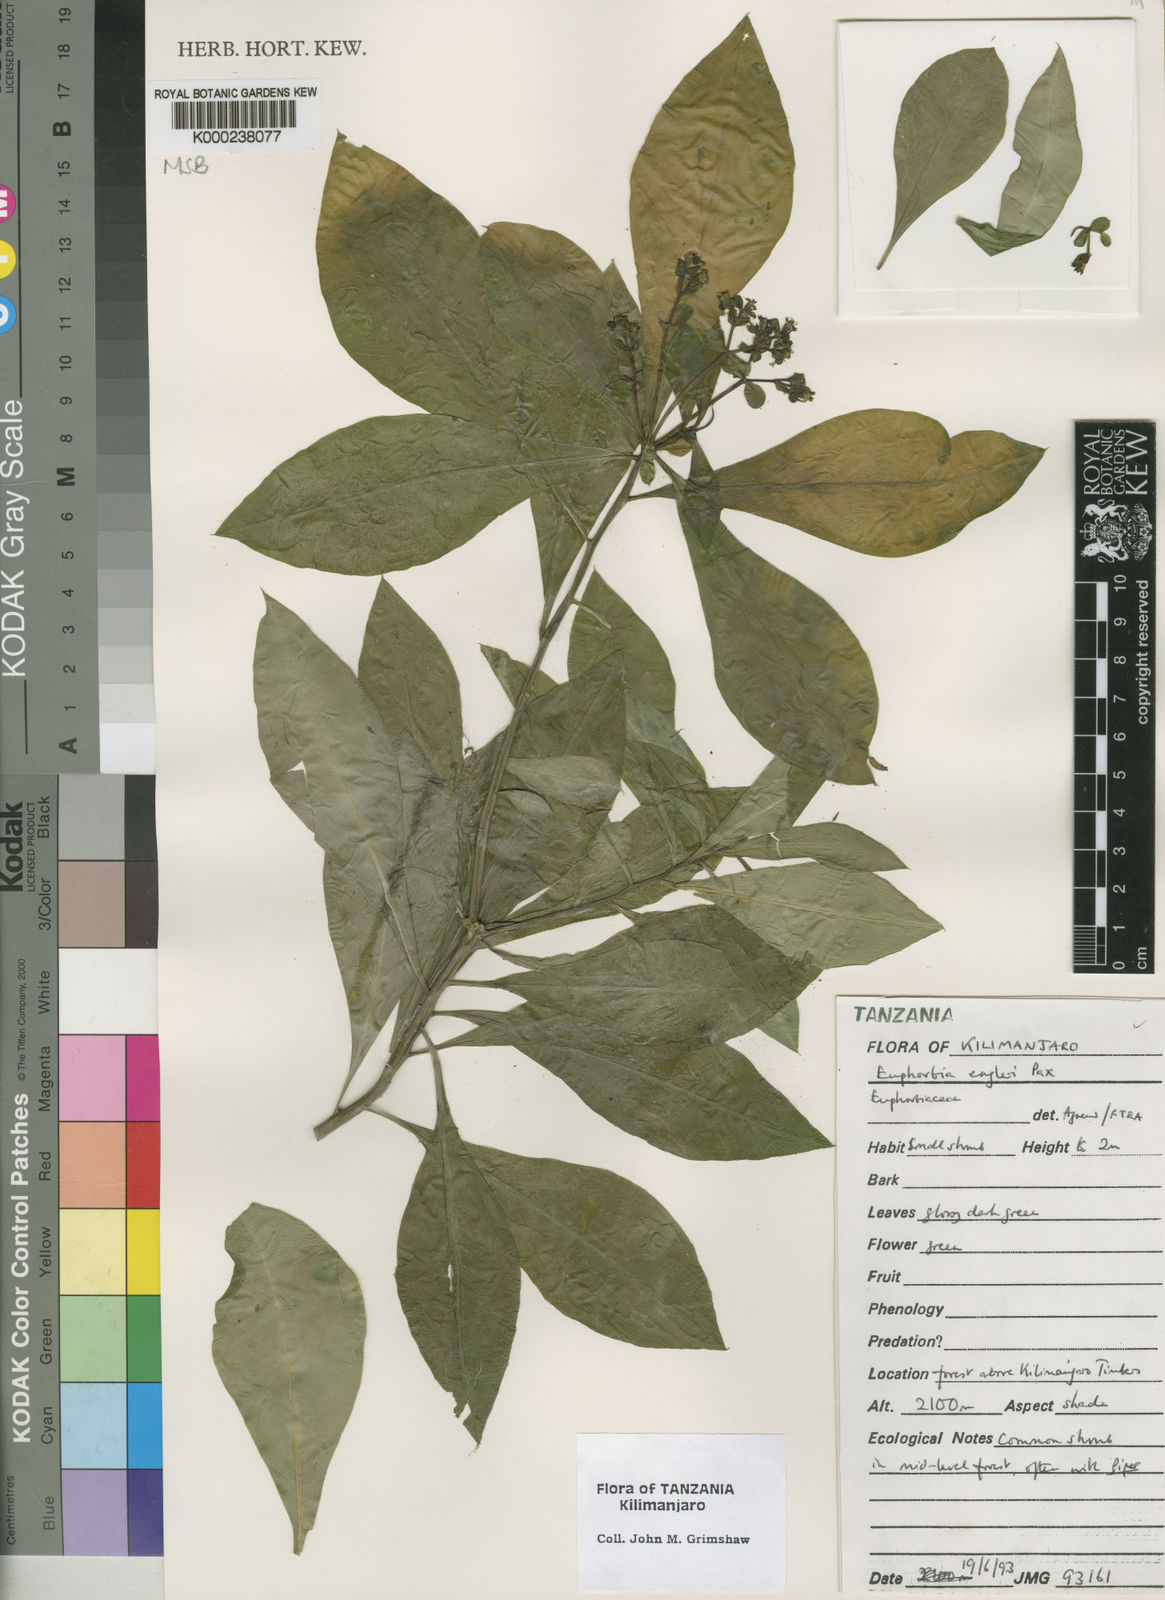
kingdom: Plantae
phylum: Tracheophyta
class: Magnoliopsida
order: Malpighiales
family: Euphorbiaceae
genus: Euphorbia
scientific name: Euphorbia engleri
